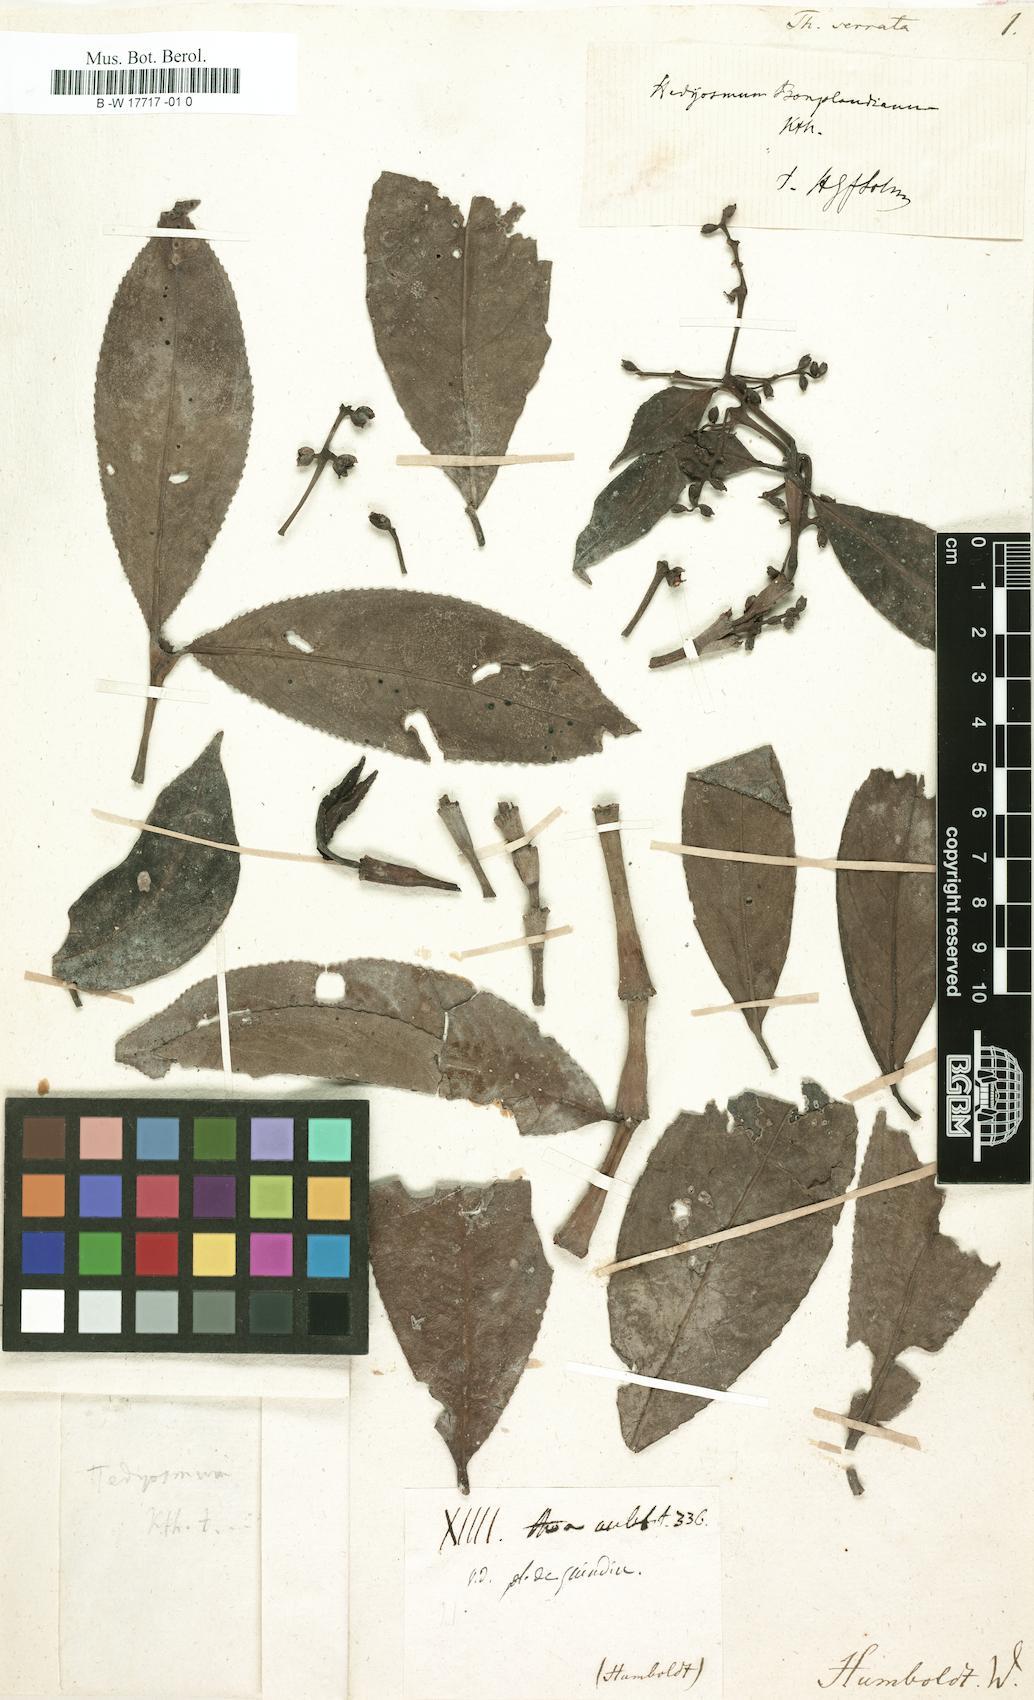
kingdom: Animalia
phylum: Arthropoda
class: Insecta
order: Hemiptera
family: Diaspididae
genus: Thoa
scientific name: Thoa
